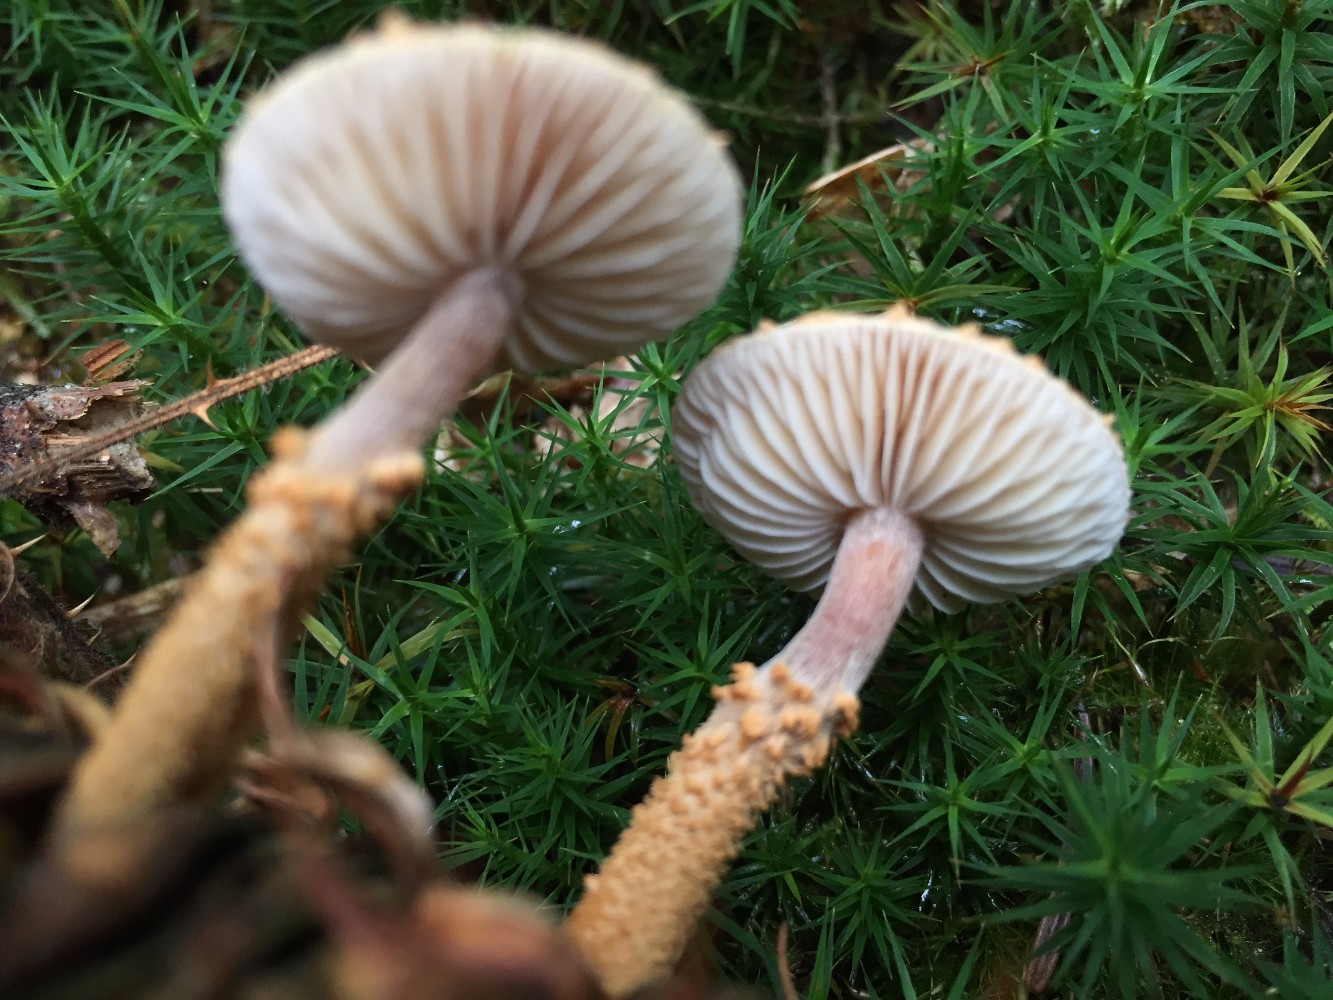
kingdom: Fungi
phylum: Basidiomycota
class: Agaricomycetes
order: Agaricales
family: Tricholomataceae
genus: Cystoderma
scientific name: Cystoderma jasonis
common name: gulkødet grynhat
